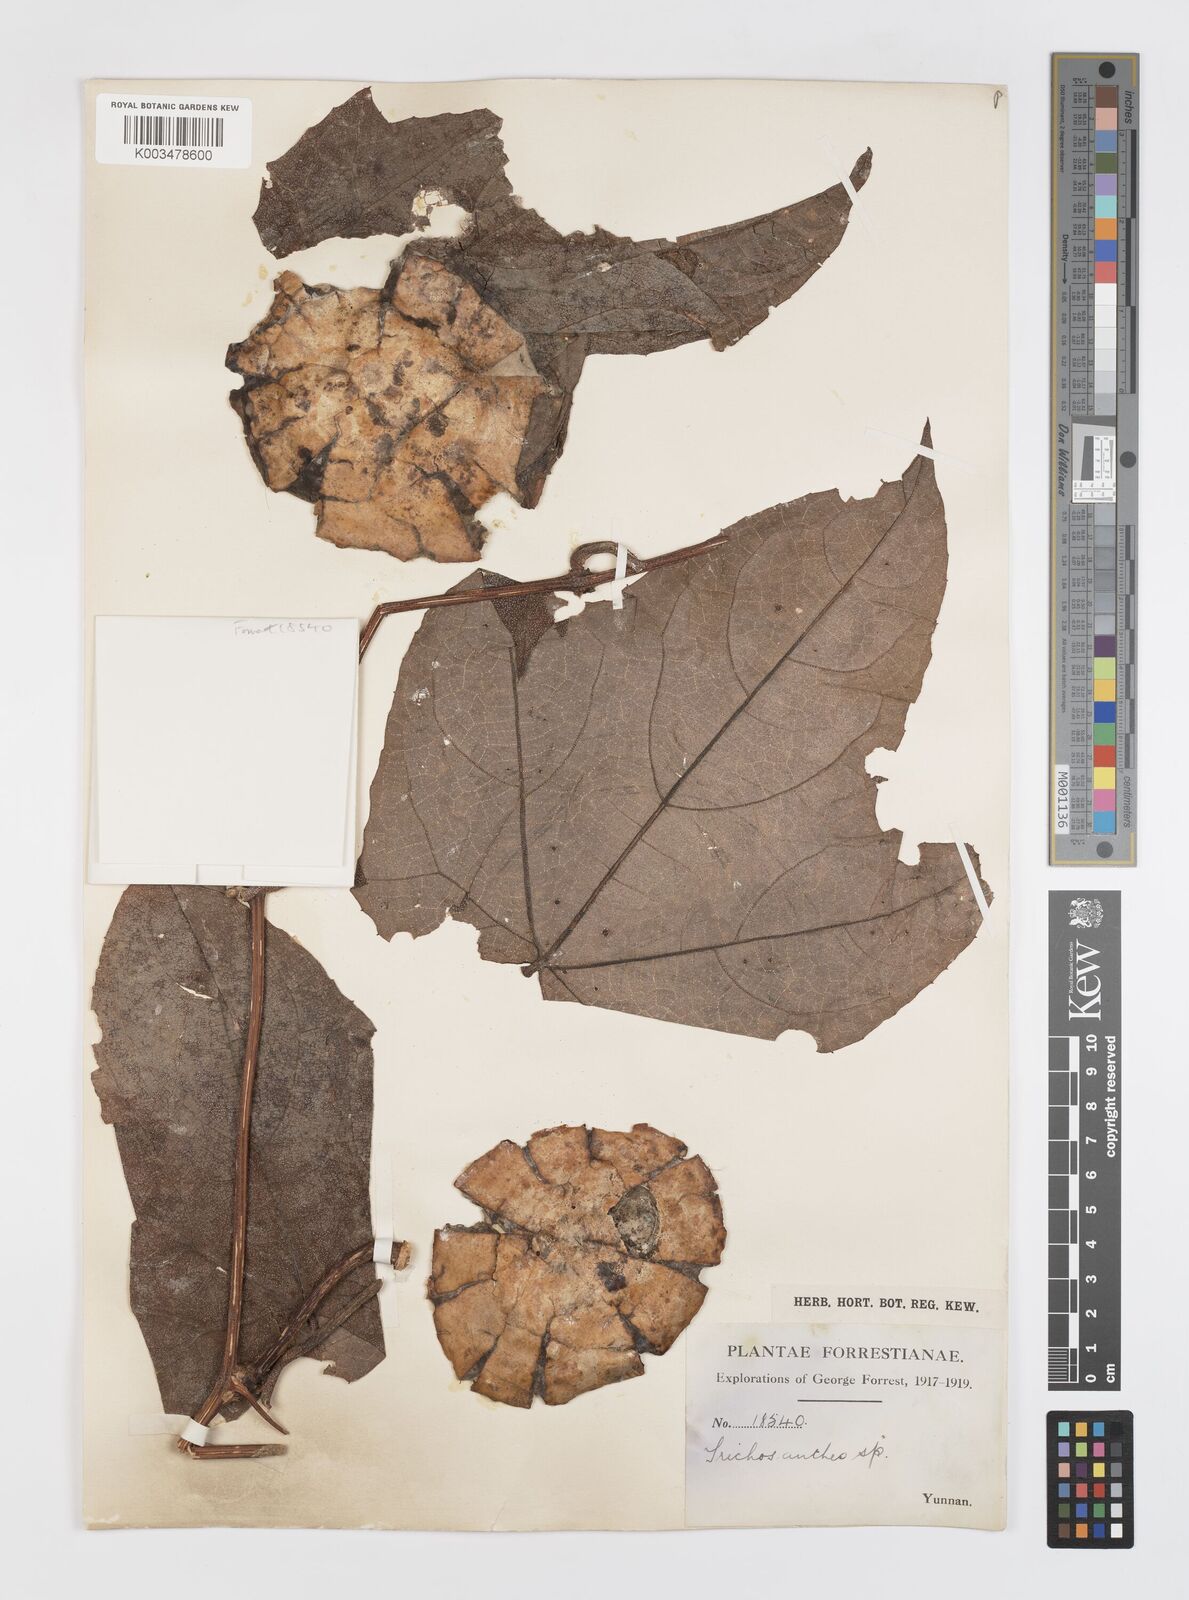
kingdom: Plantae
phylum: Tracheophyta
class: Magnoliopsida
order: Cucurbitales
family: Cucurbitaceae
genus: Trichosanthes
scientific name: Trichosanthes
